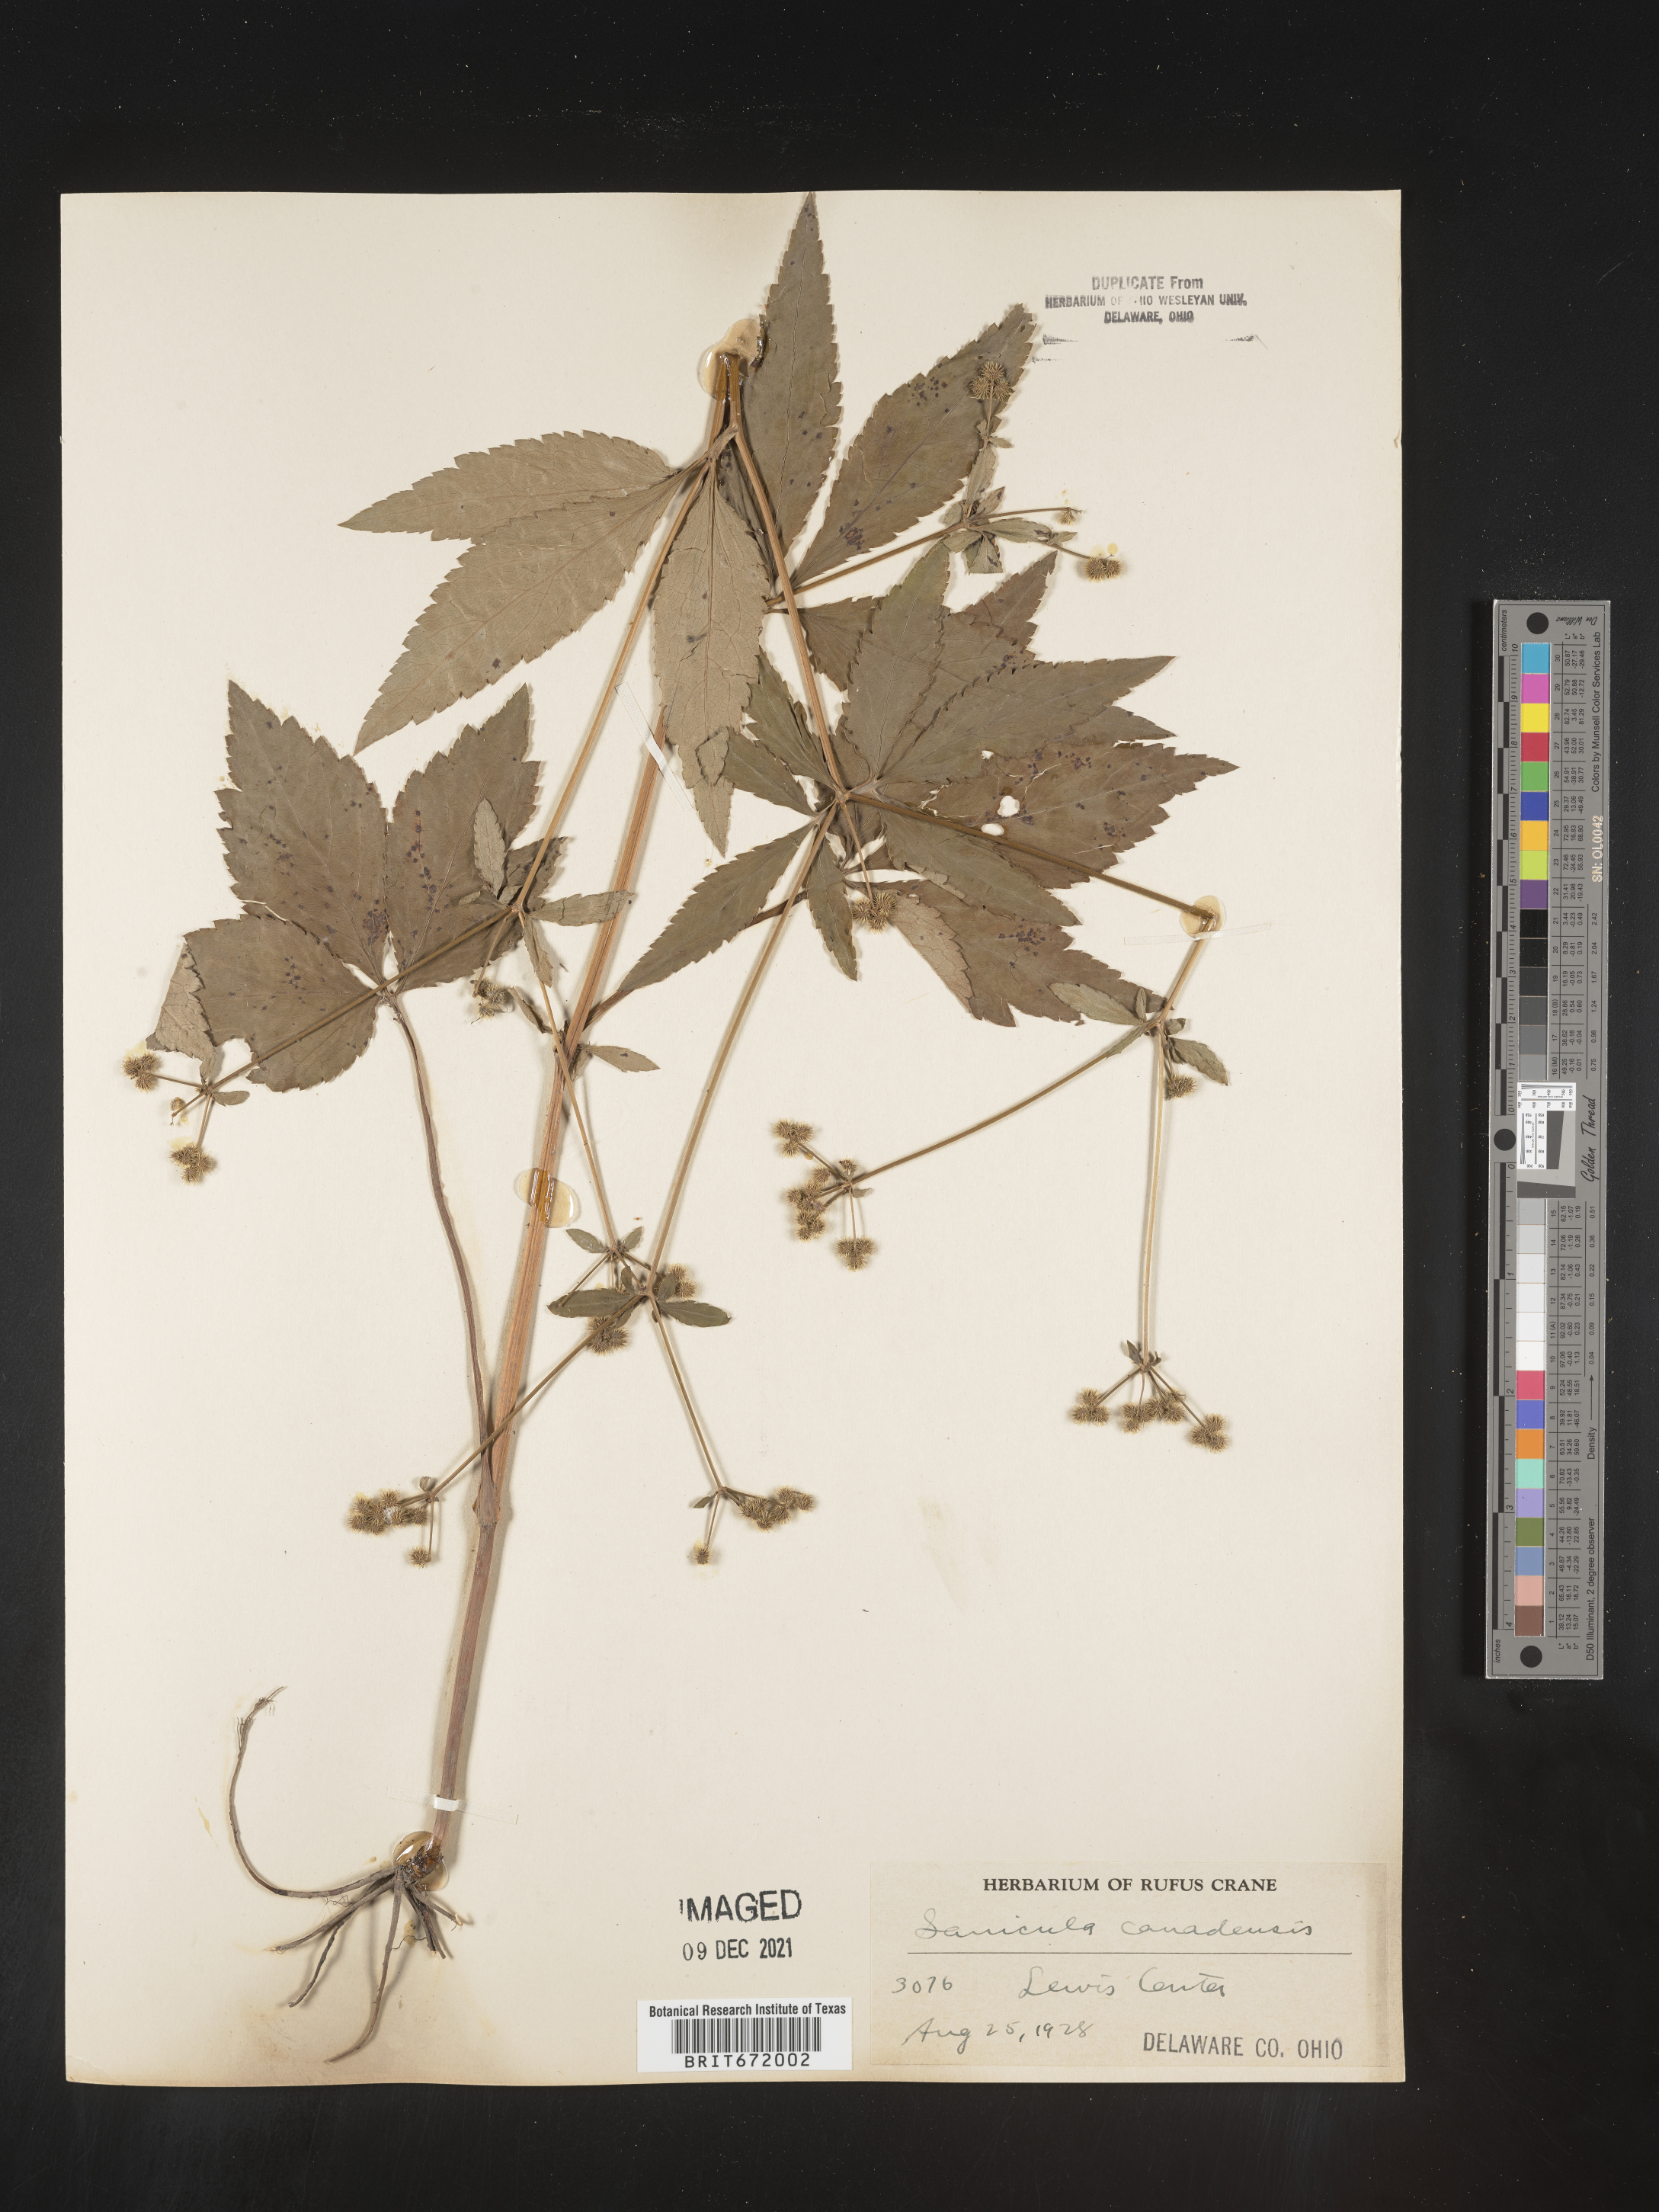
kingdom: Plantae
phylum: Tracheophyta
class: Magnoliopsida
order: Apiales
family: Apiaceae
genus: Sanicula
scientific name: Sanicula canadensis
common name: Canada sanicle
